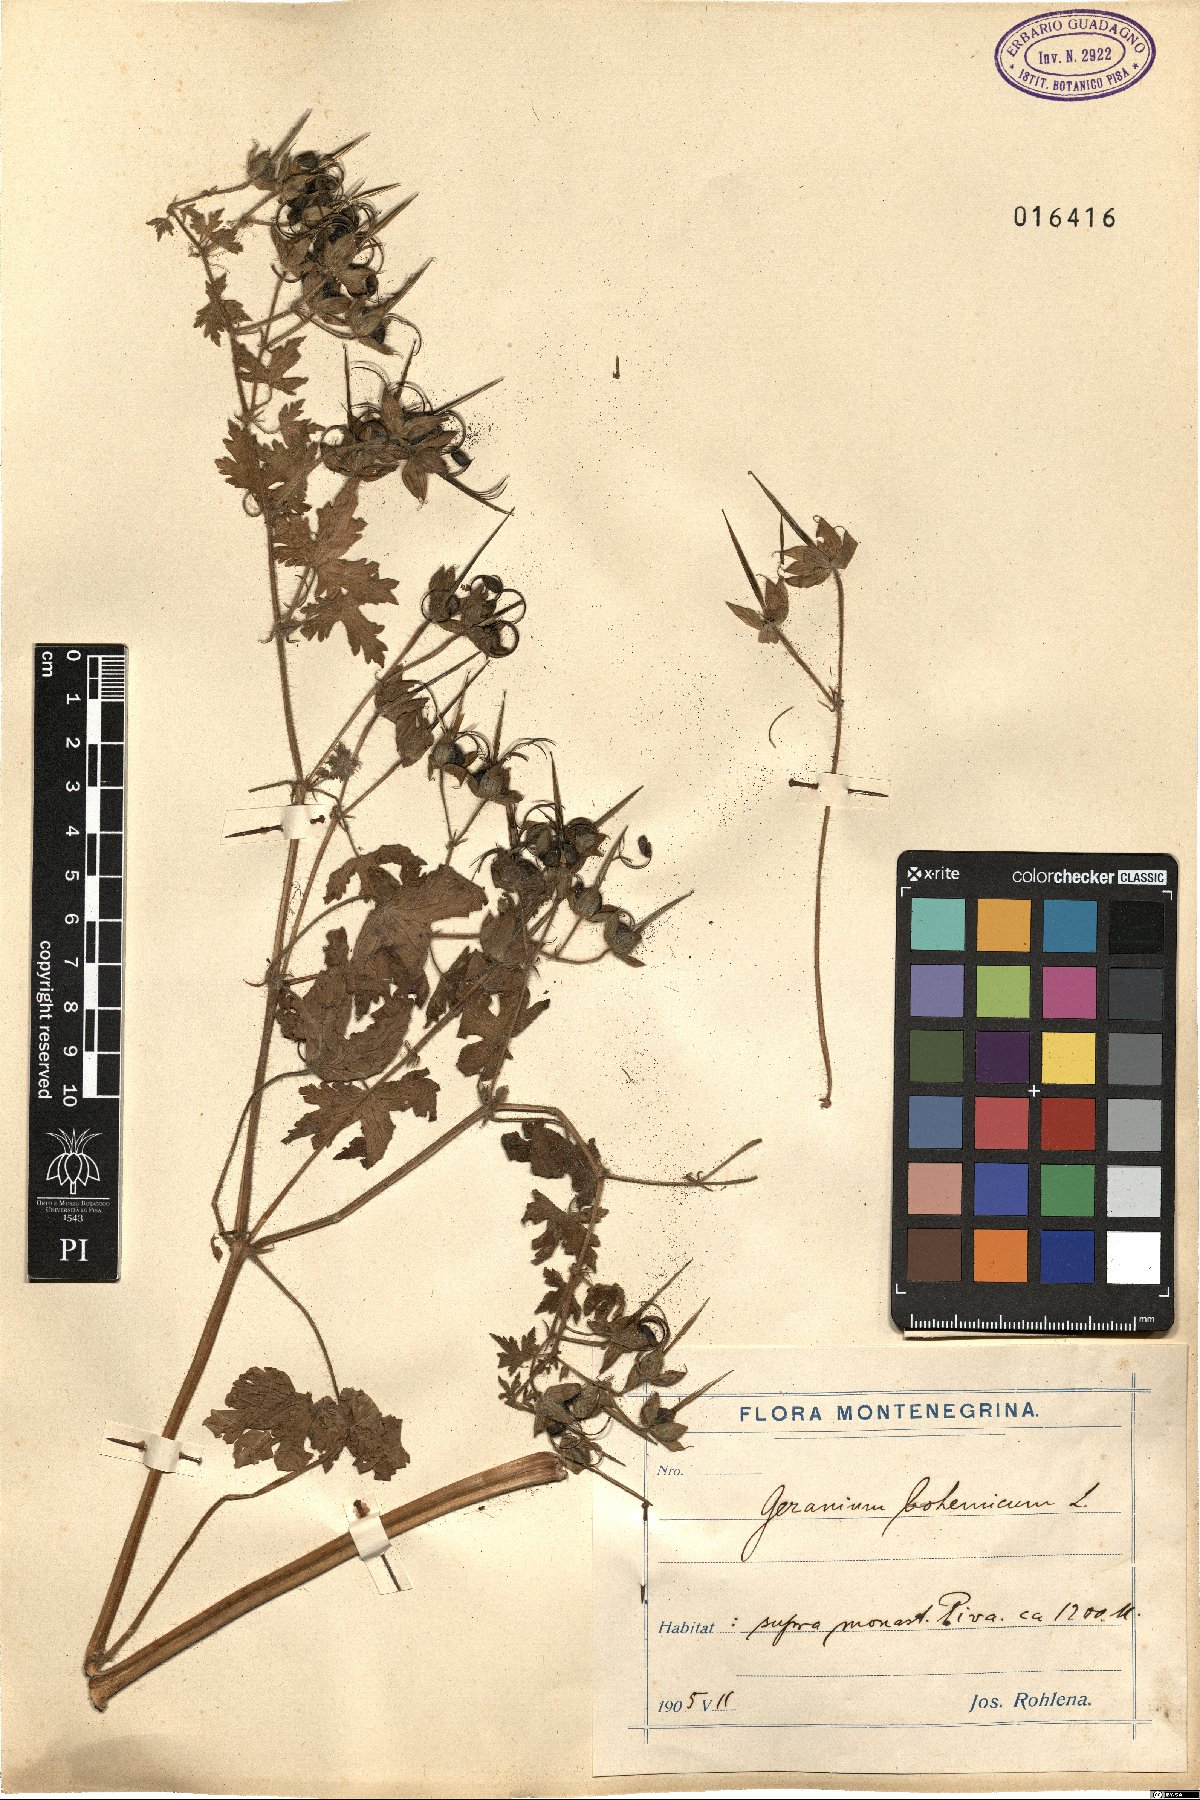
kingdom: Plantae
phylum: Tracheophyta
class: Magnoliopsida
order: Geraniales
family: Geraniaceae
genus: Geranium
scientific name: Geranium bohemicum
